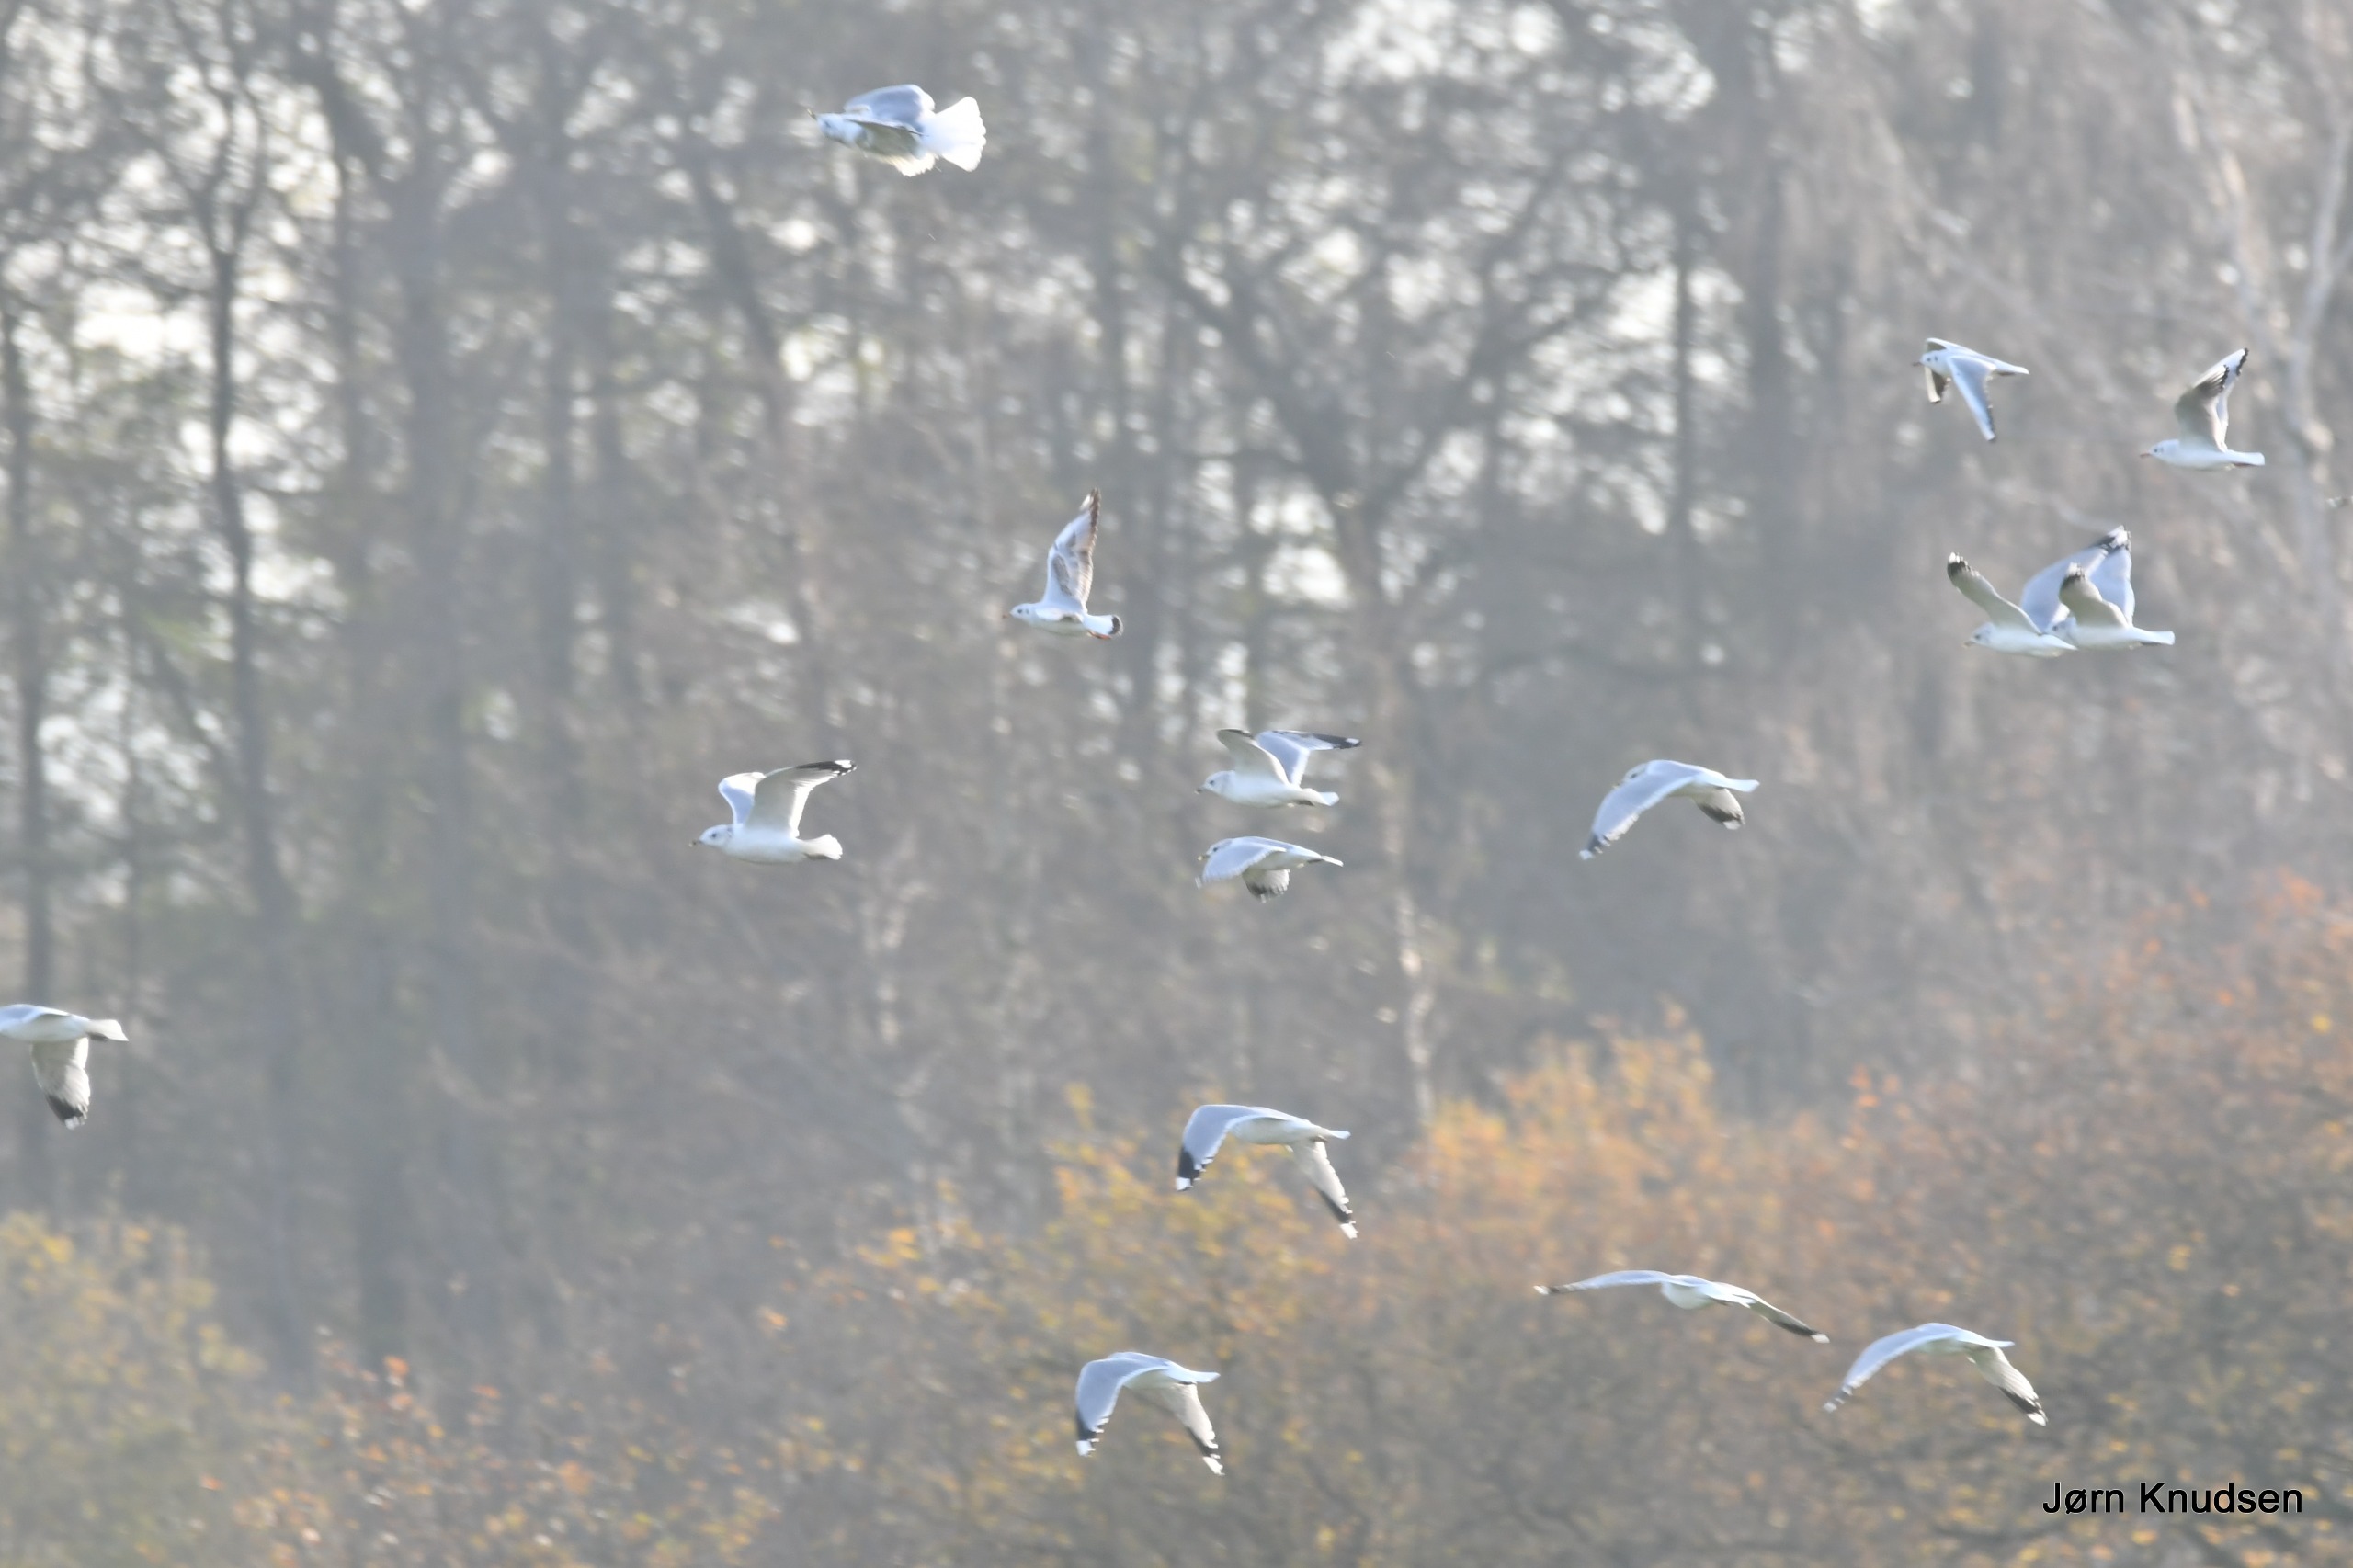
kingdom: Animalia
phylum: Chordata
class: Aves
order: Charadriiformes
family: Laridae
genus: Chroicocephalus
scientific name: Chroicocephalus ridibundus
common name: Hættemåge
